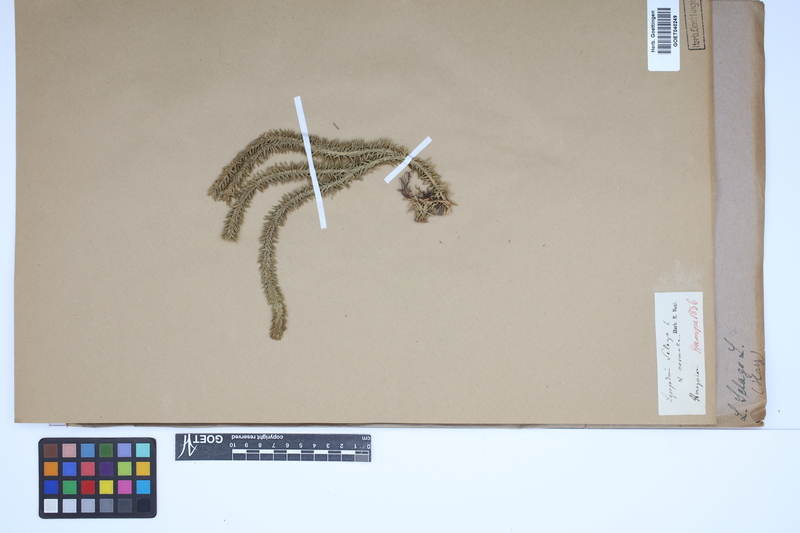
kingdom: Plantae
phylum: Tracheophyta
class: Lycopodiopsida
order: Lycopodiales
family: Lycopodiaceae
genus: Huperzia
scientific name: Huperzia selago
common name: Northern firmoss
